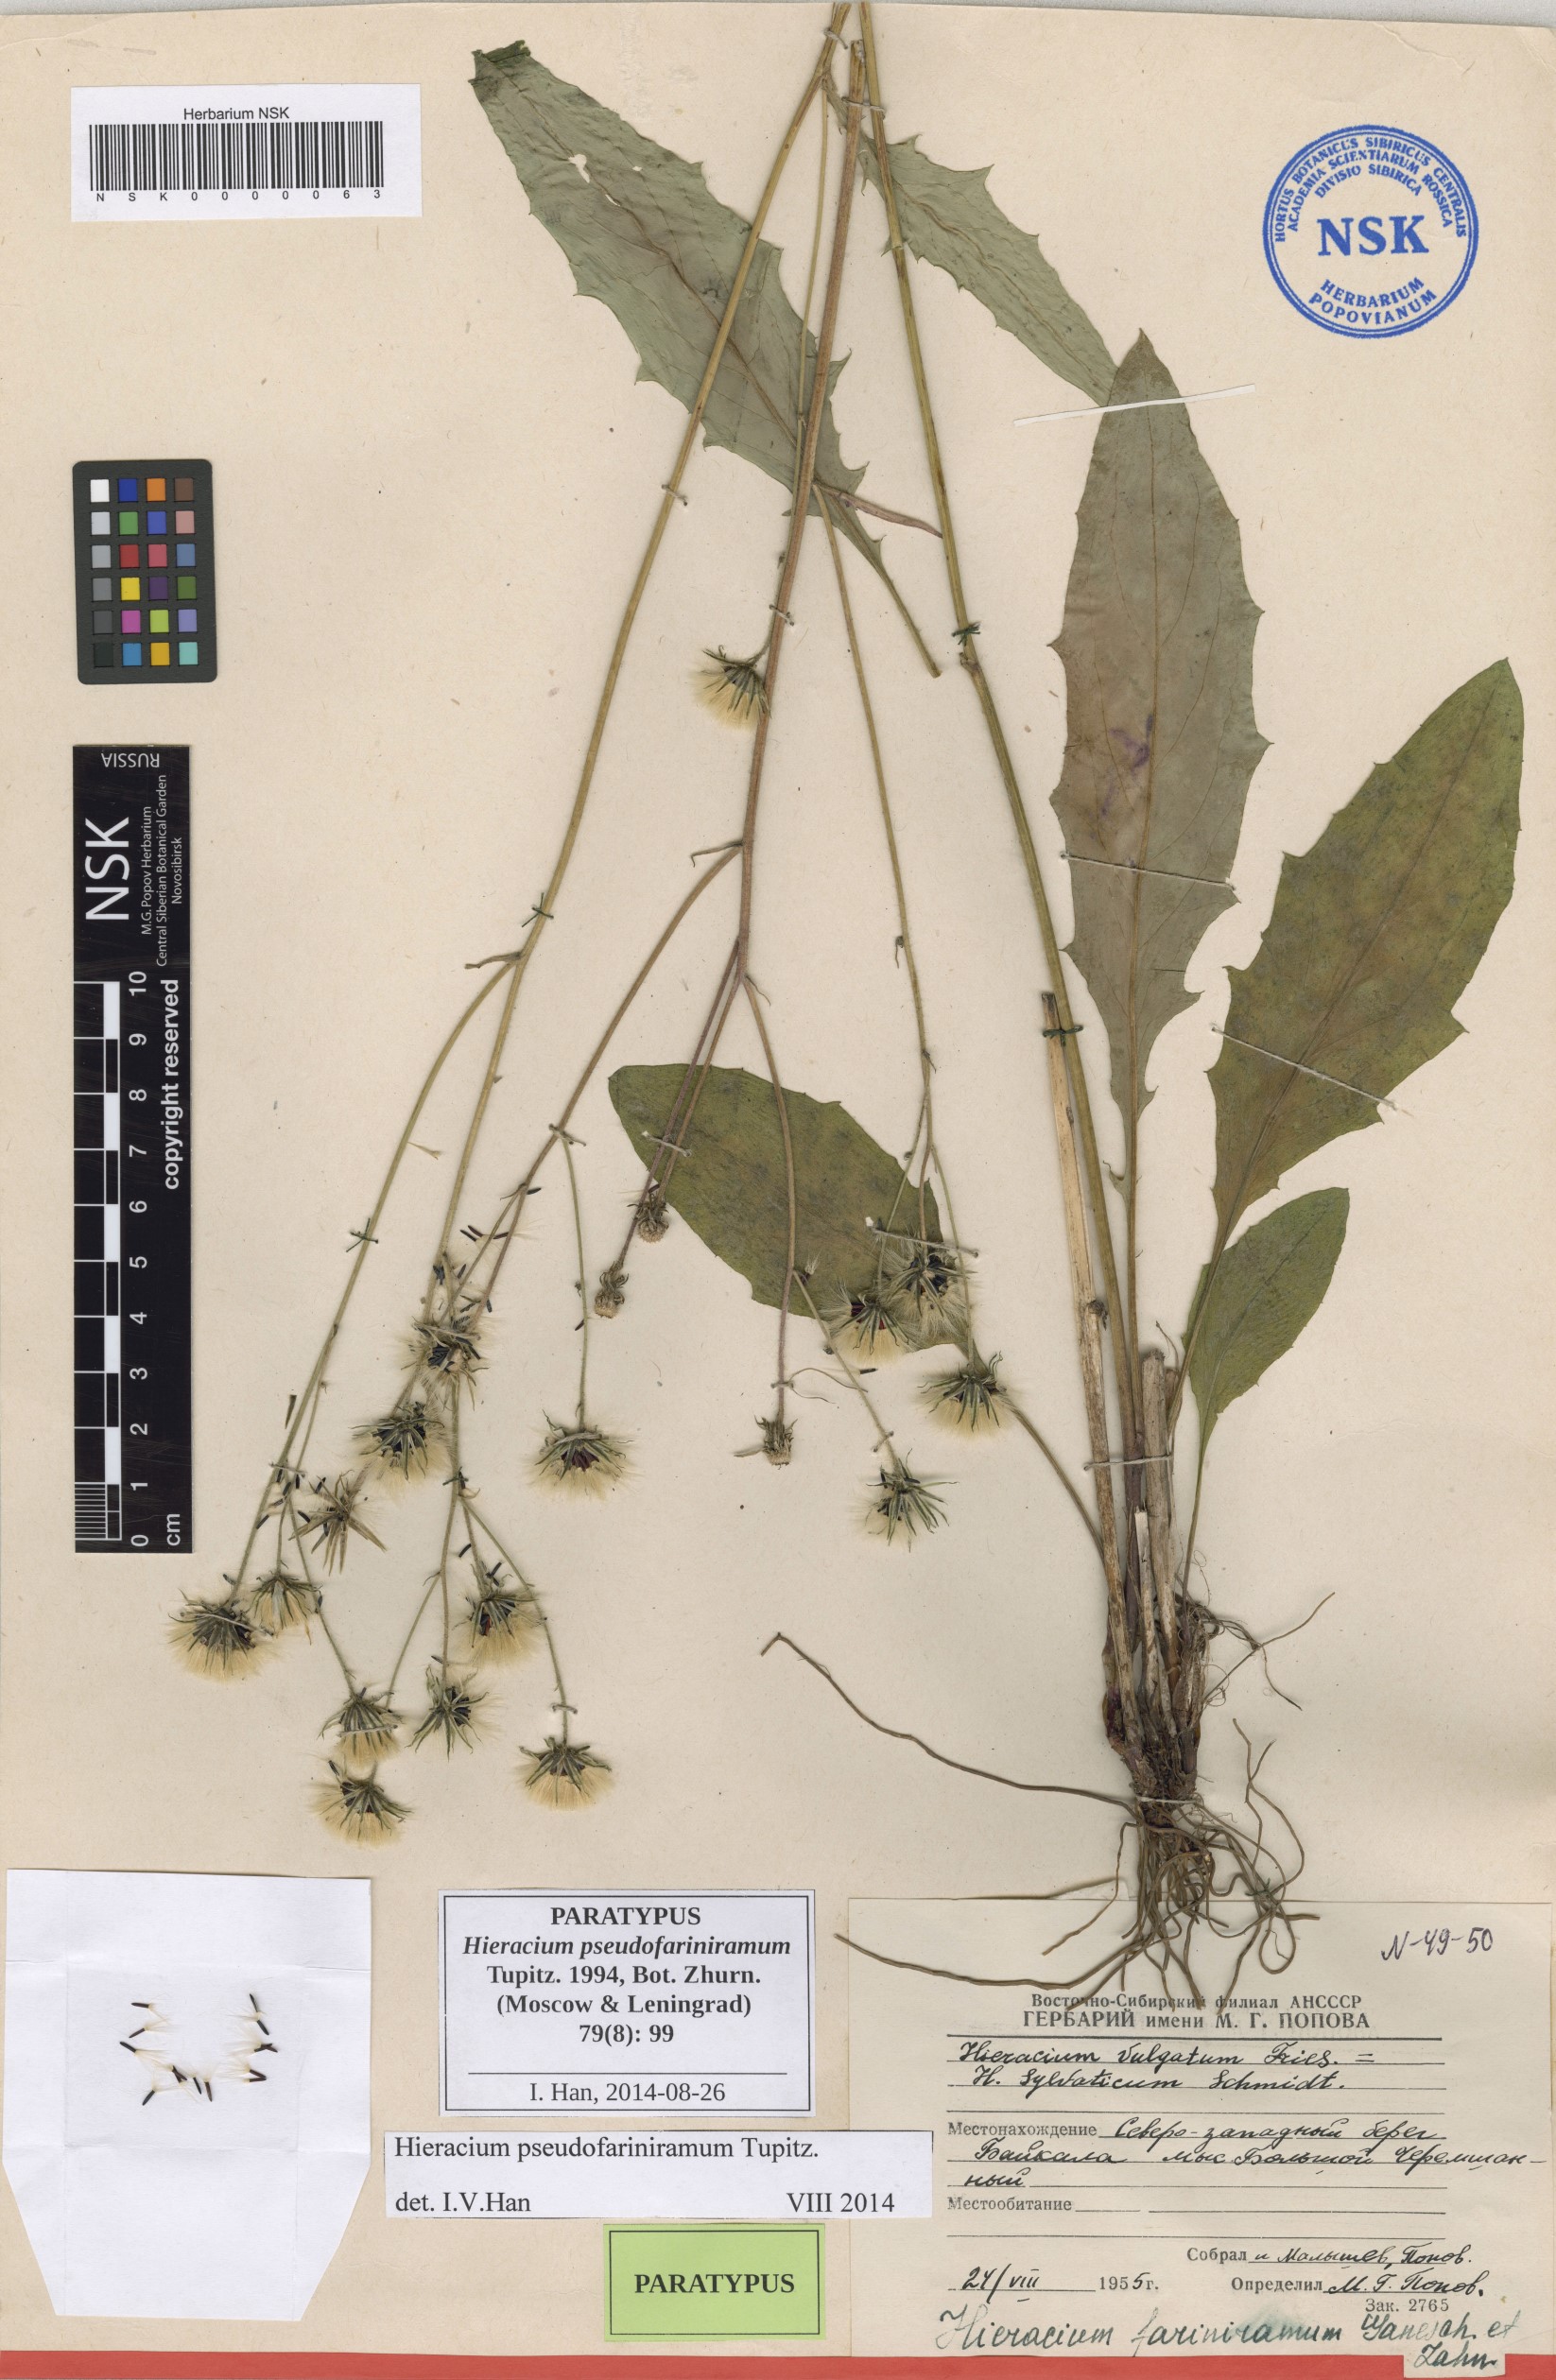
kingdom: Plantae
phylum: Tracheophyta
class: Magnoliopsida
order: Asterales
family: Asteraceae
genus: Hieracium
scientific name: Hieracium pseudofariniramum
